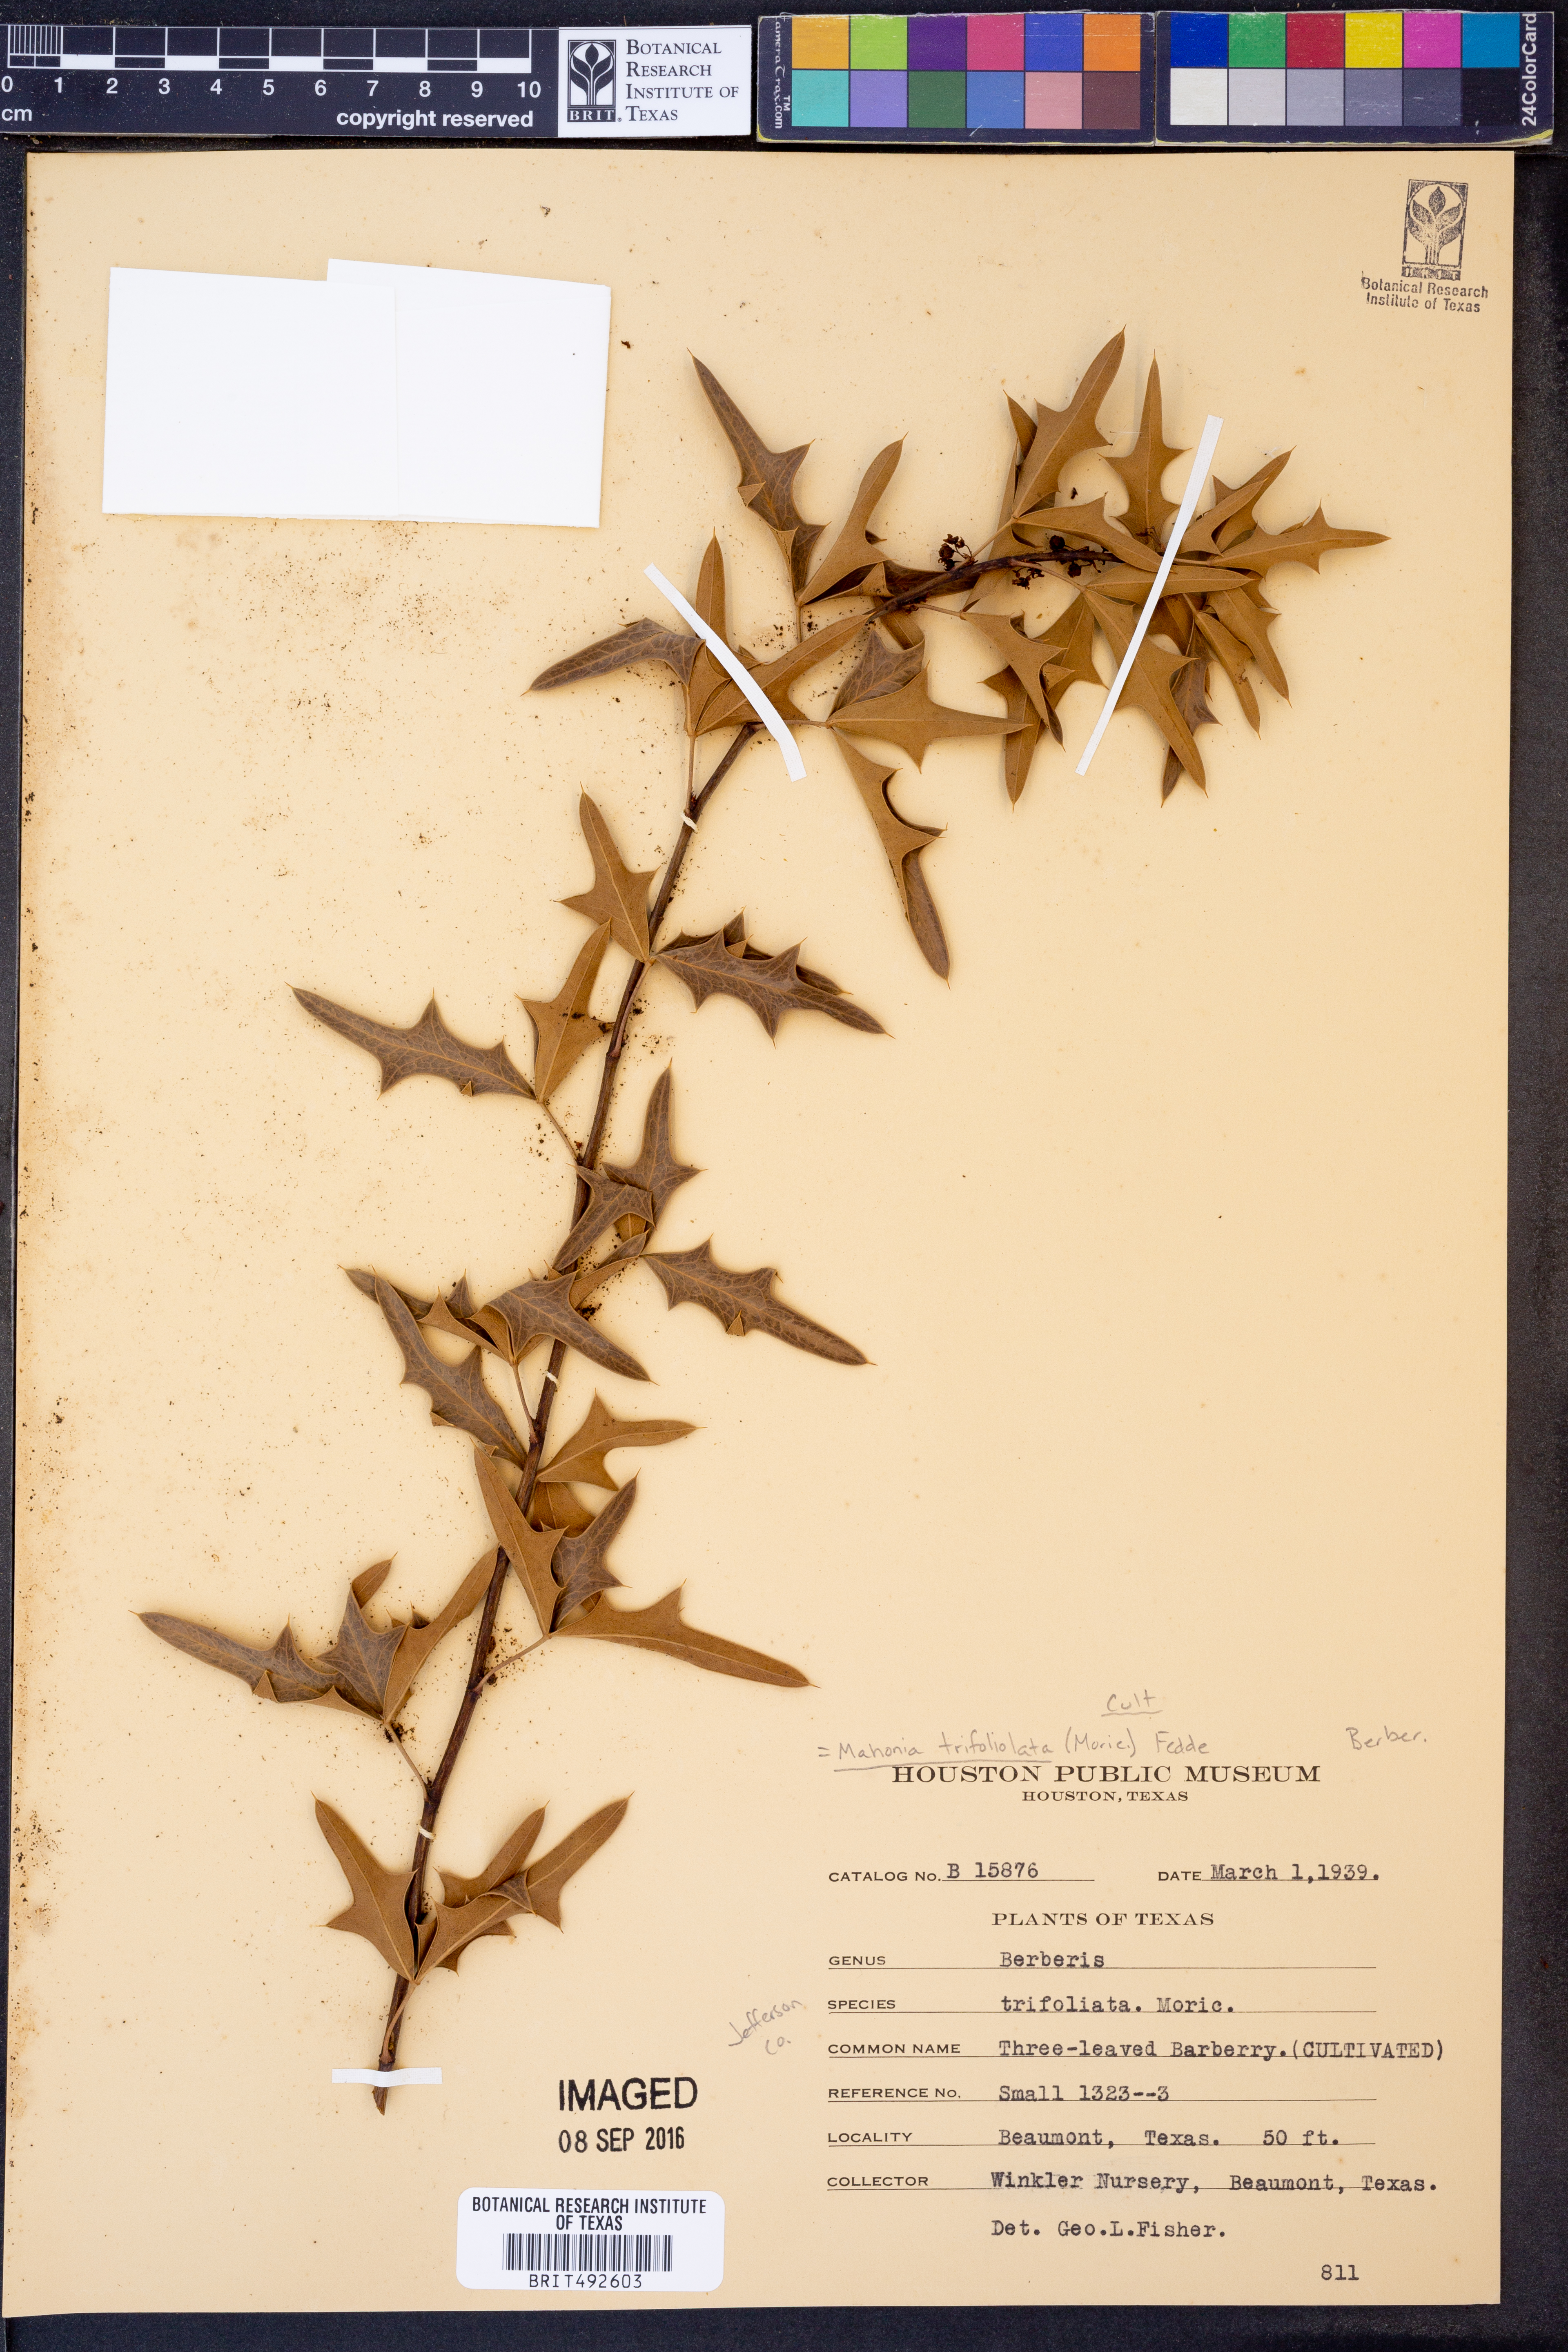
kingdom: Plantae
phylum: Tracheophyta
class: Magnoliopsida
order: Ranunculales
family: Berberidaceae
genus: Alloberberis
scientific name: Alloberberis trifoliolata
